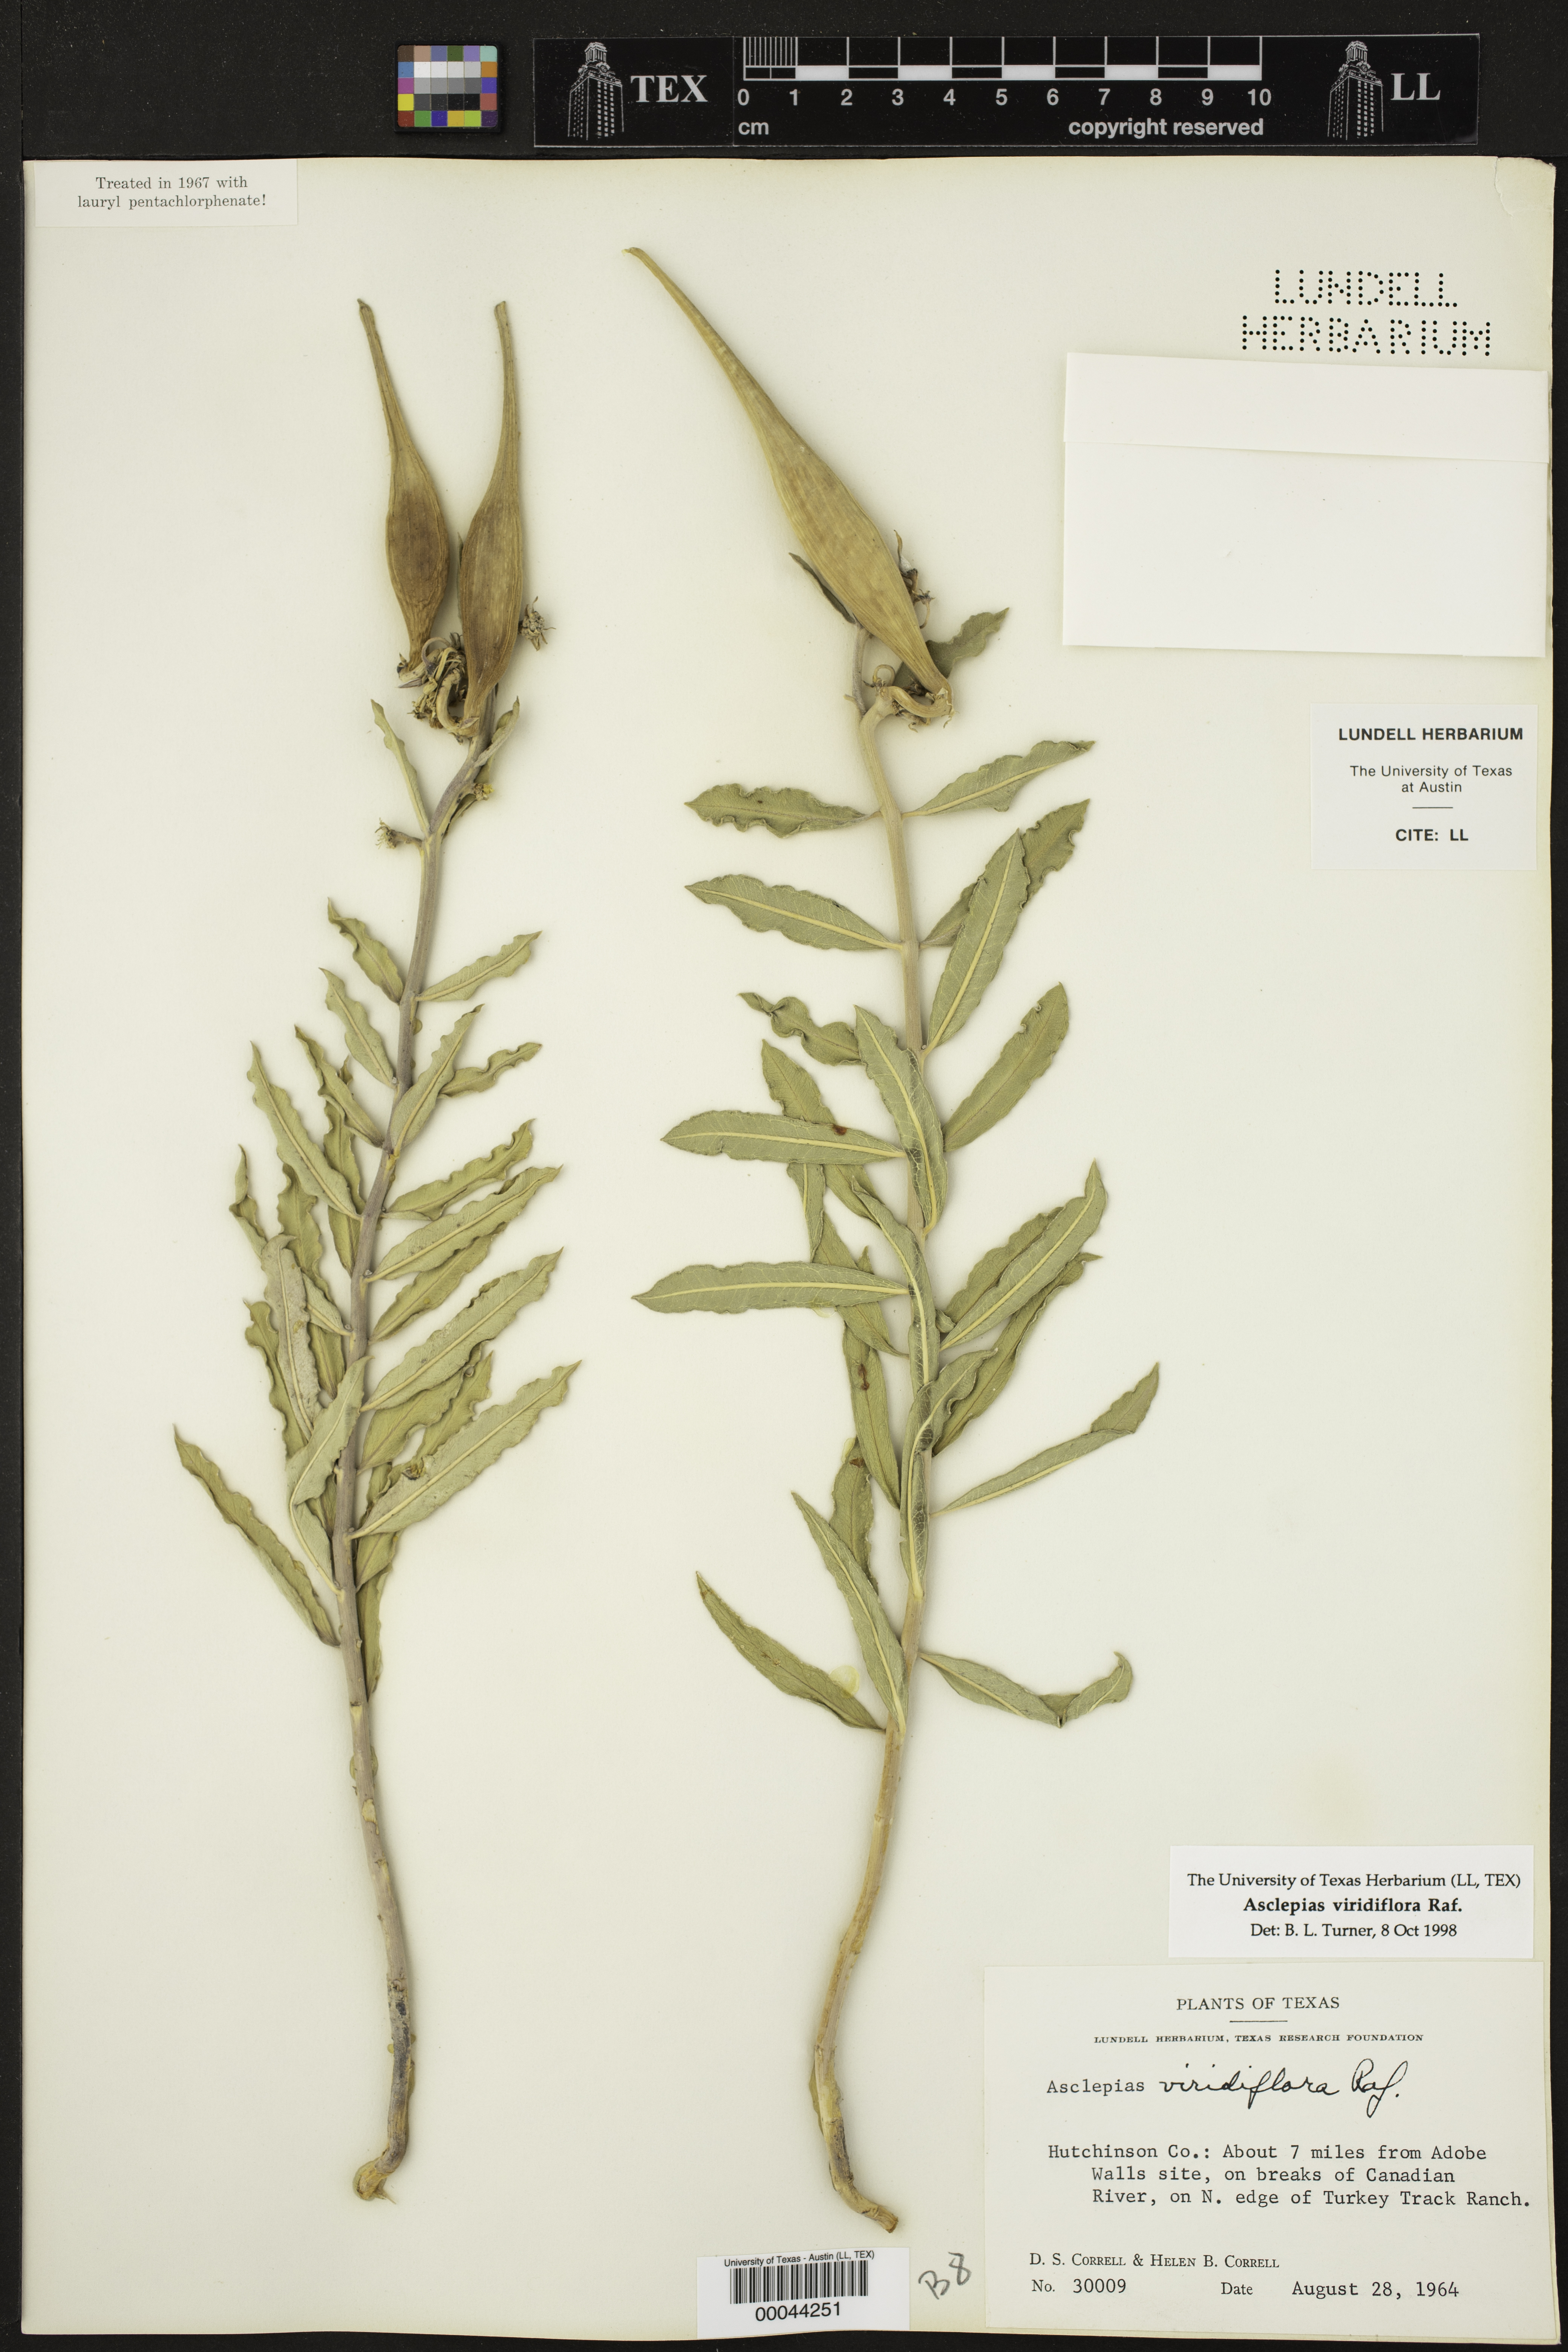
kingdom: Plantae
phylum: Tracheophyta
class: Magnoliopsida
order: Gentianales
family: Apocynaceae
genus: Asclepias
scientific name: Asclepias viridiflora
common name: Green comet milkweed
